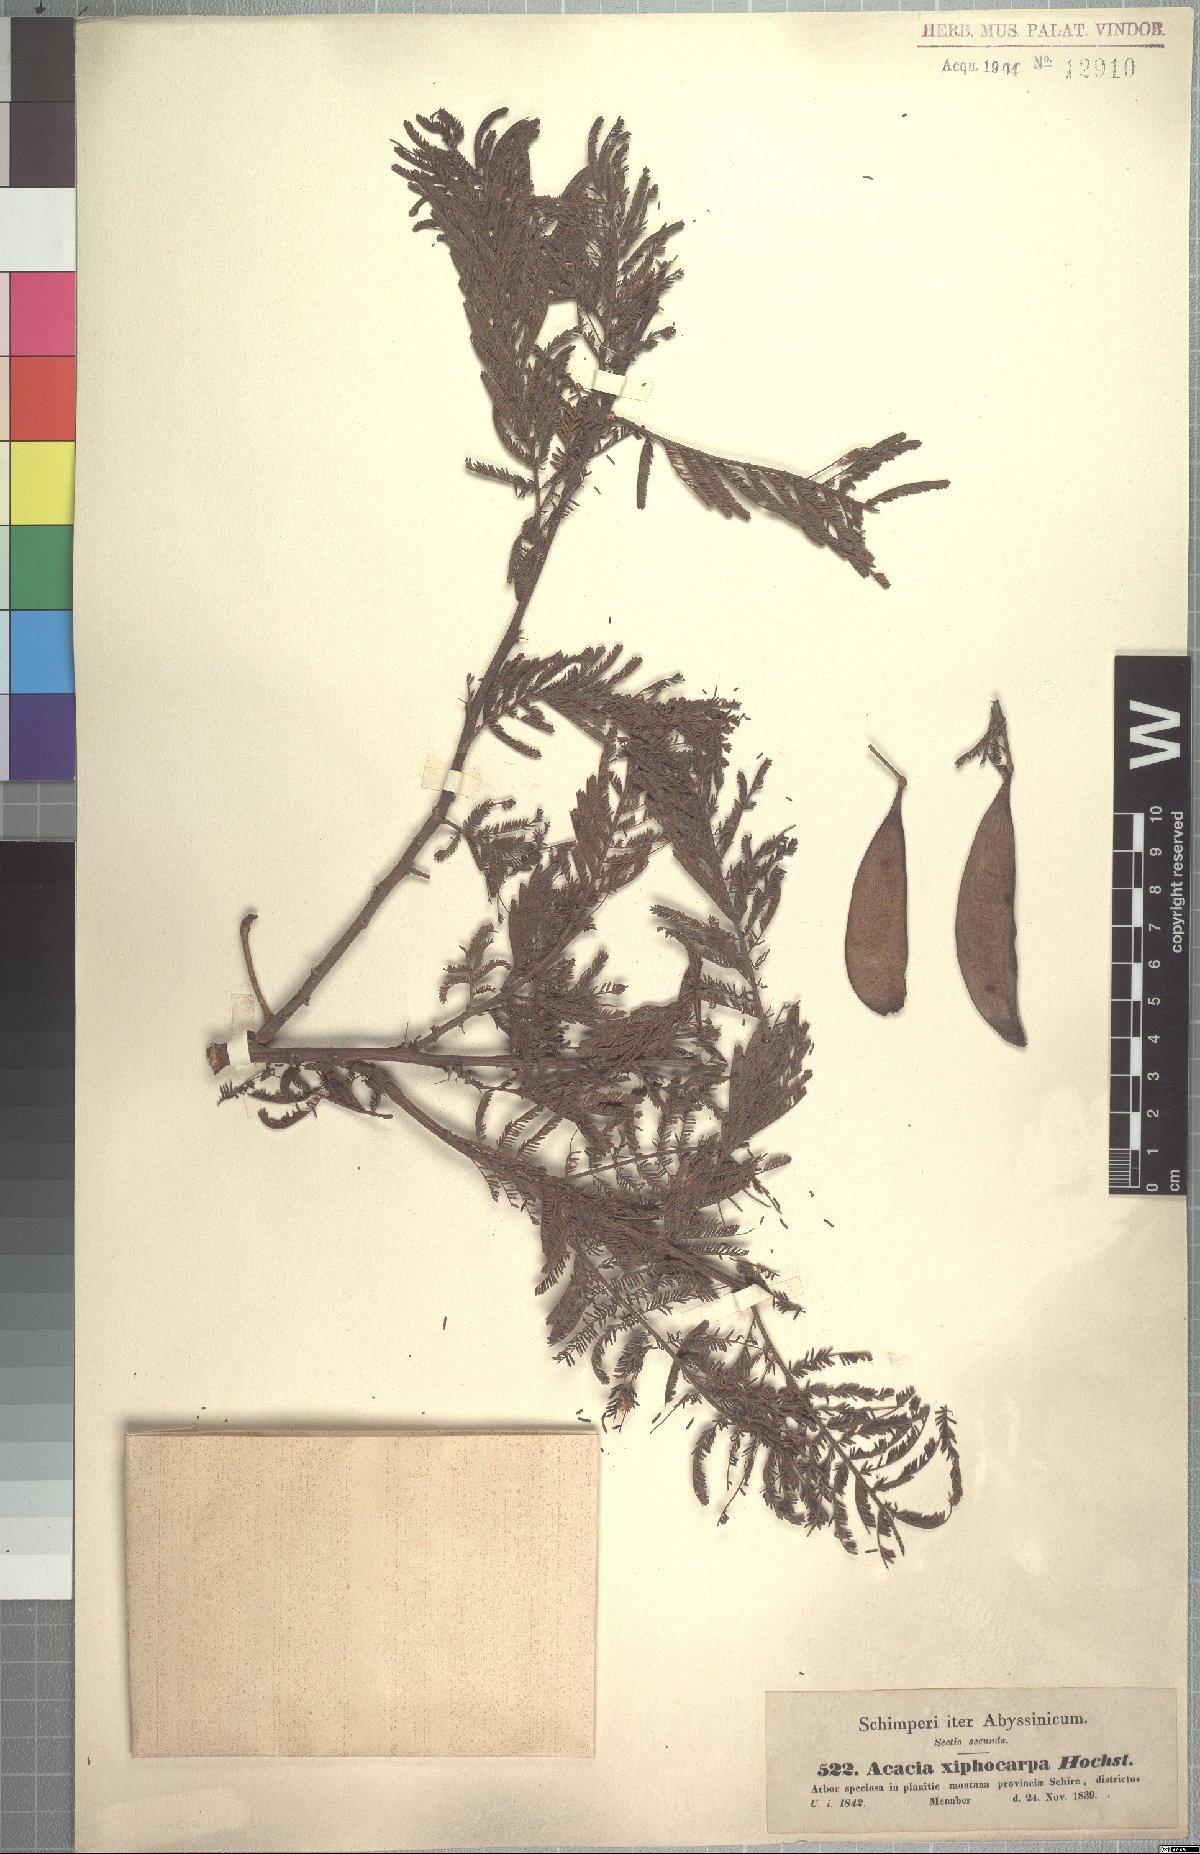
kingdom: Plantae
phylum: Tracheophyta
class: Magnoliopsida
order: Fabales
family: Fabaceae
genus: Vachellia
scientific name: Vachellia abyssinica
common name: Nyanga flat-top
